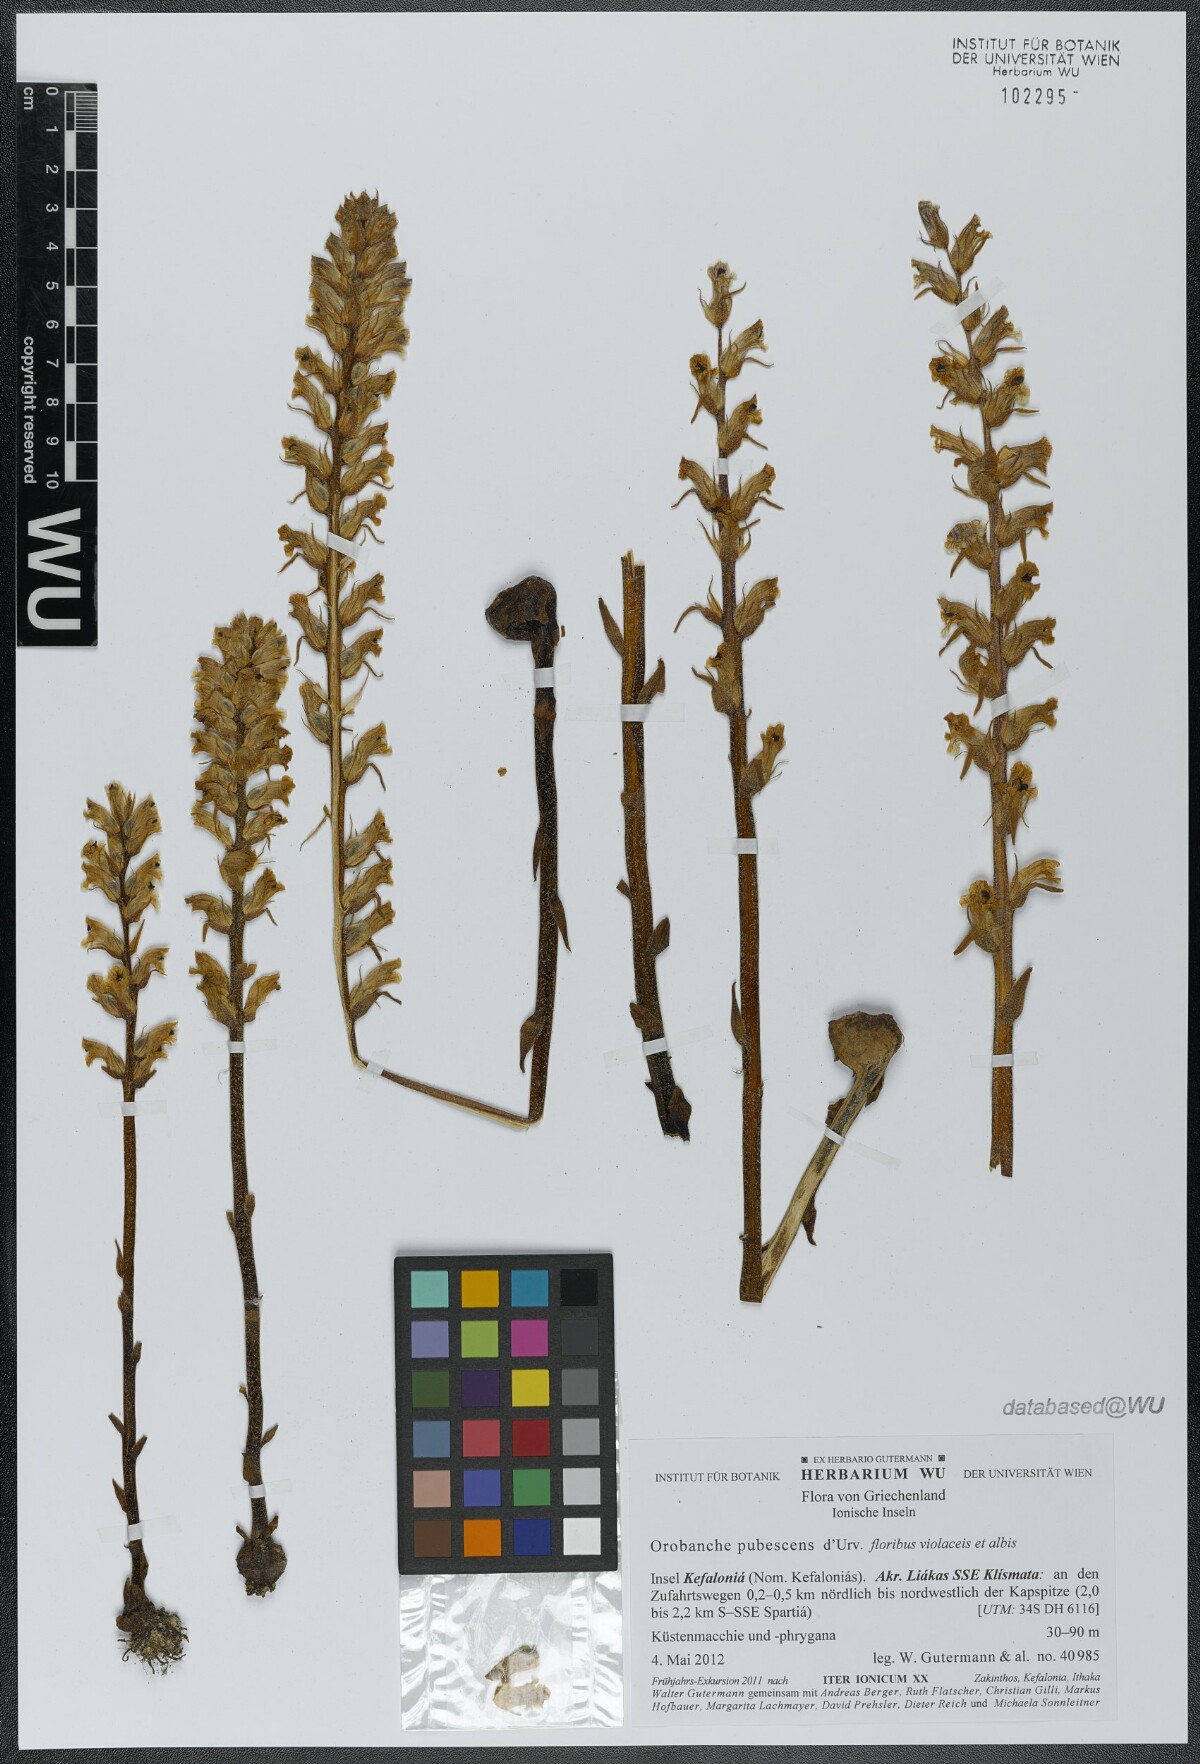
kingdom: Plantae
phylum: Tracheophyta
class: Magnoliopsida
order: Lamiales
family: Orobanchaceae
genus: Orobanche
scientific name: Orobanche pubescens
